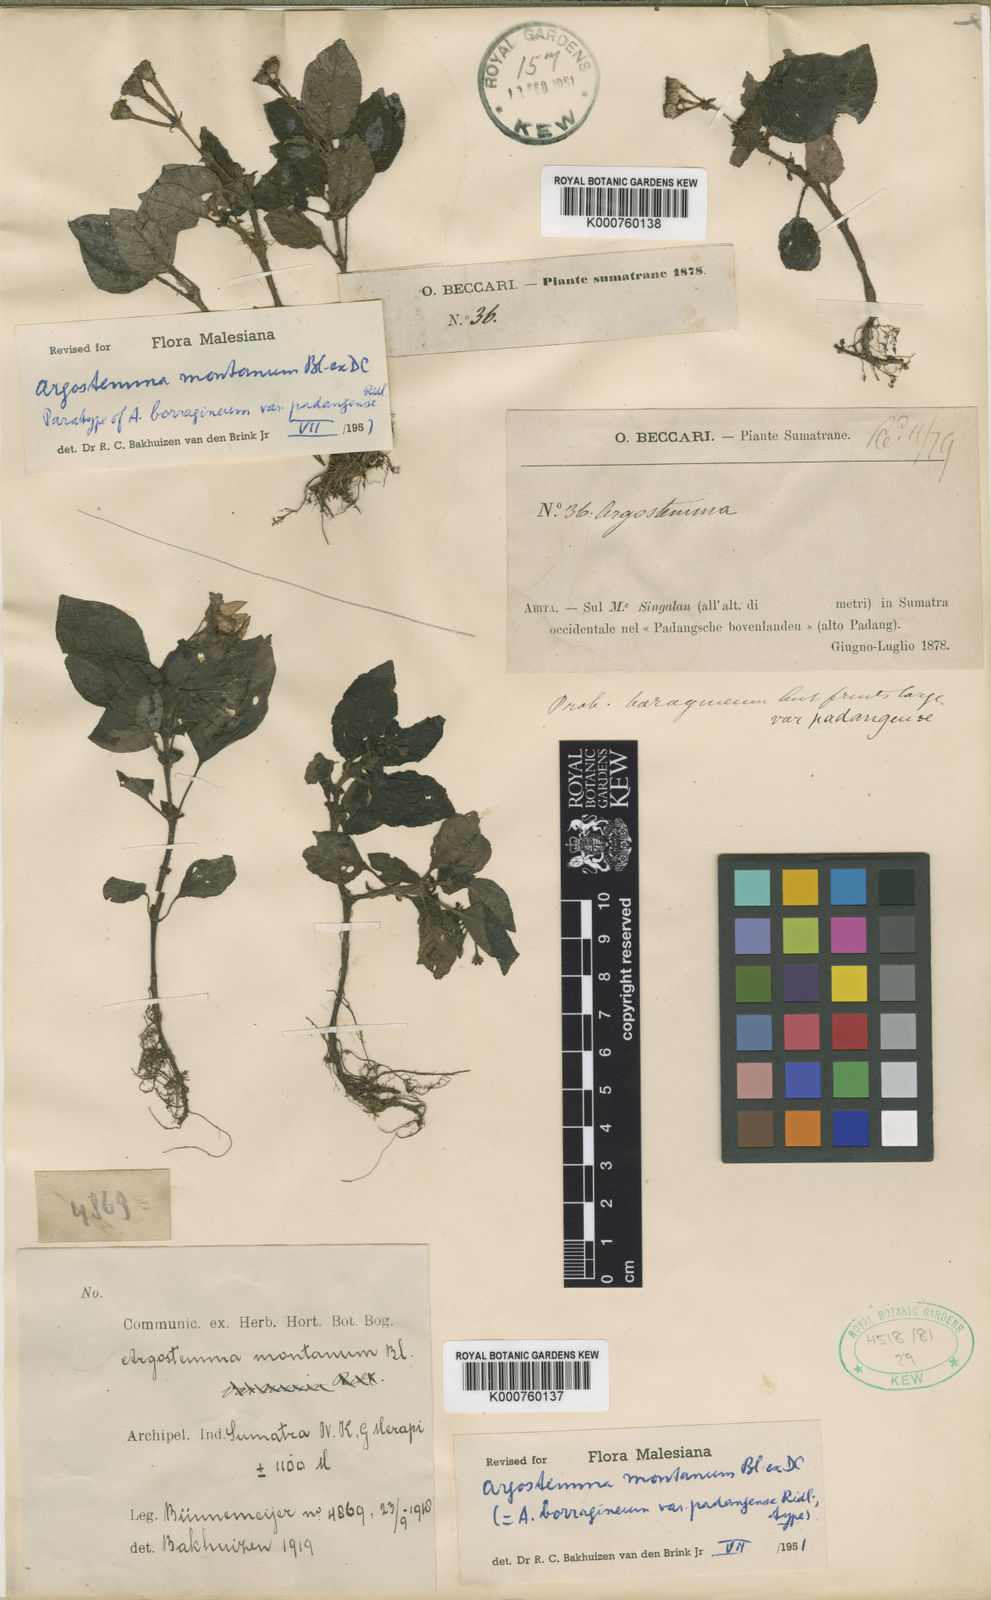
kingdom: Plantae
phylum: Tracheophyta
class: Magnoliopsida
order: Gentianales
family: Rubiaceae
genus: Argostemma
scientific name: Argostemma montanum
